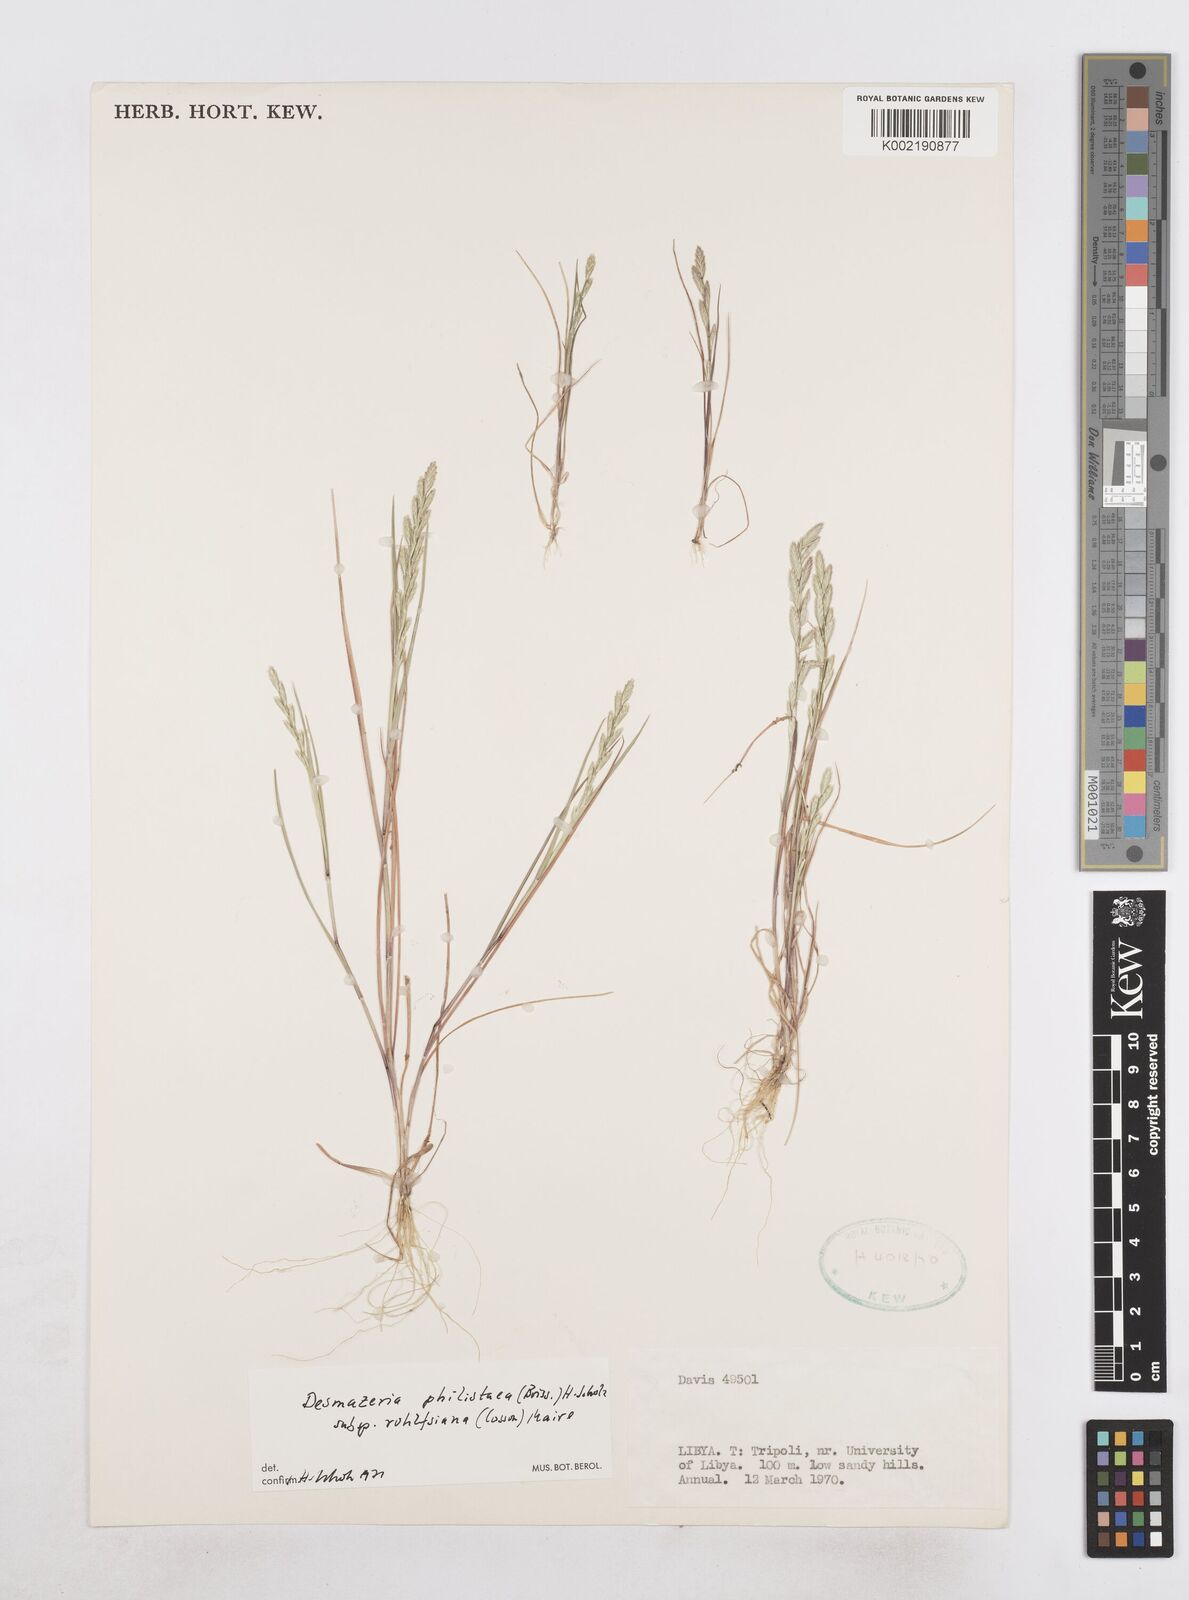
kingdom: Plantae
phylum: Tracheophyta
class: Liliopsida
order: Poales
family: Poaceae
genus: Desmazeria
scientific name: Desmazeria philistaea
